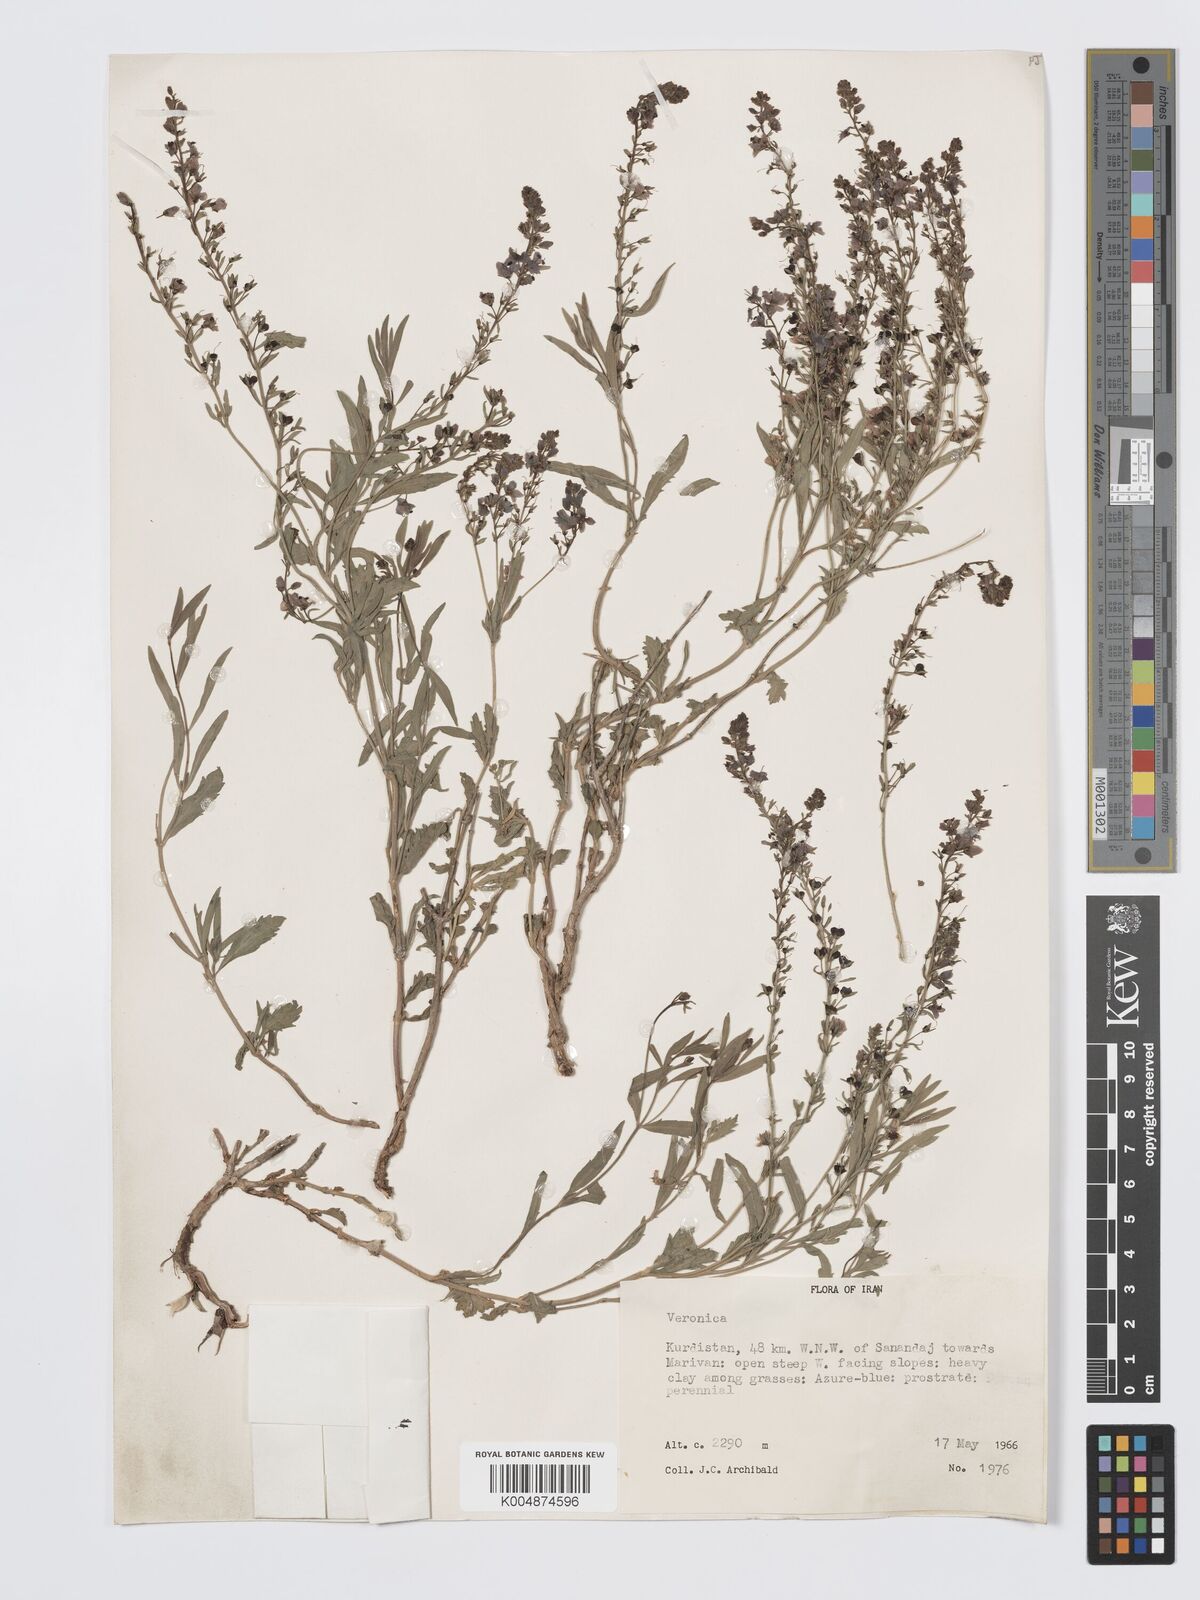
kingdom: Plantae
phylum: Tracheophyta
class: Magnoliopsida
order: Lamiales
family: Plantaginaceae
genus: Veronica
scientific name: Veronica
